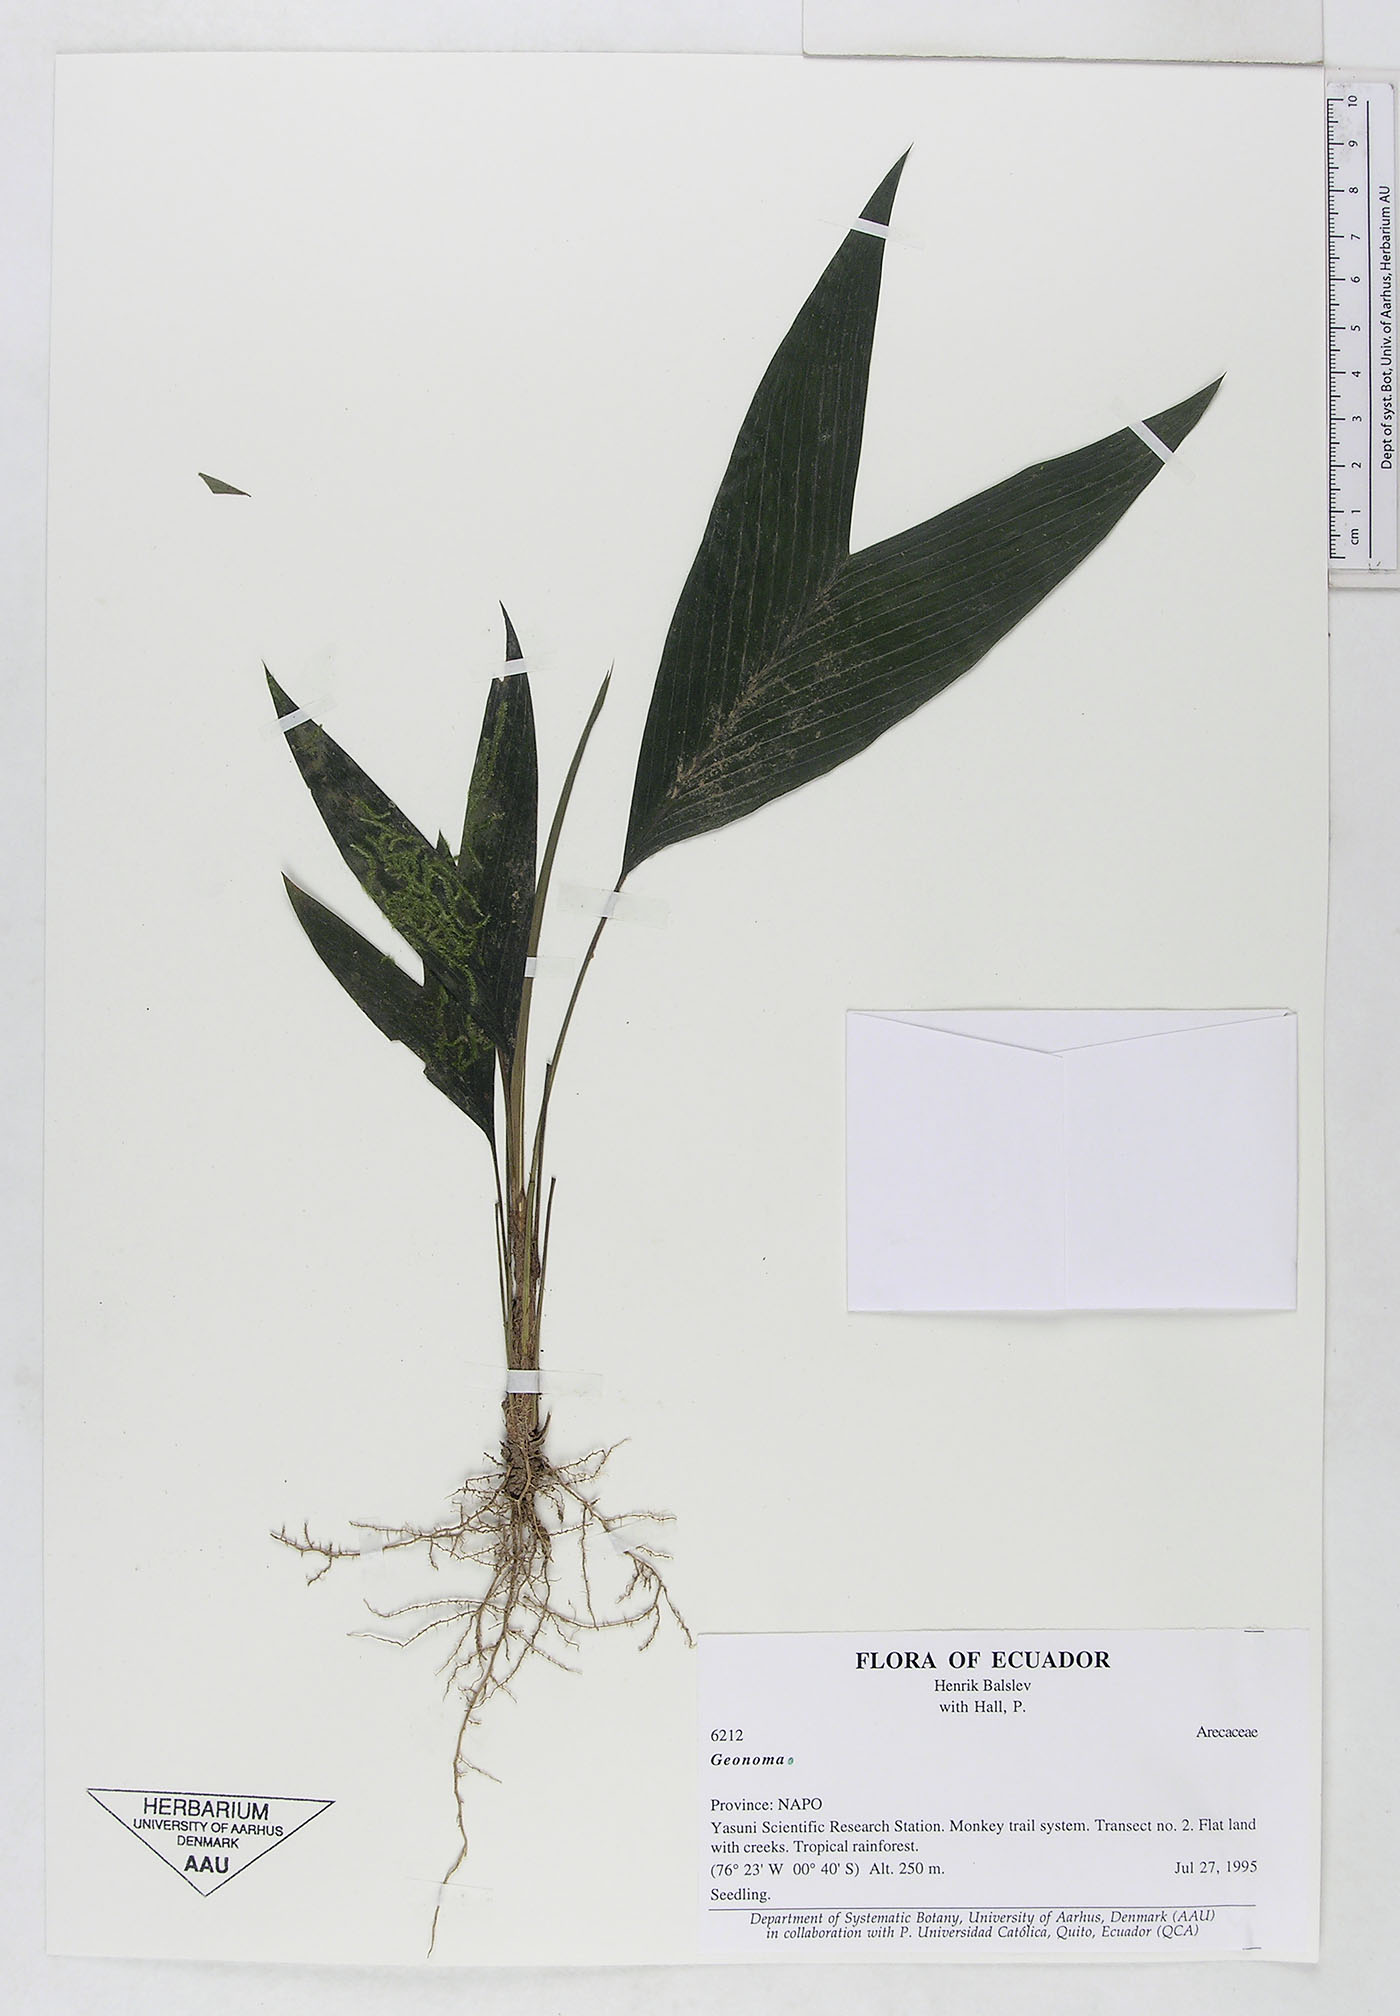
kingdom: Plantae
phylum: Tracheophyta
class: Liliopsida
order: Arecales
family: Arecaceae
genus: Geonoma
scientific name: Geonoma
